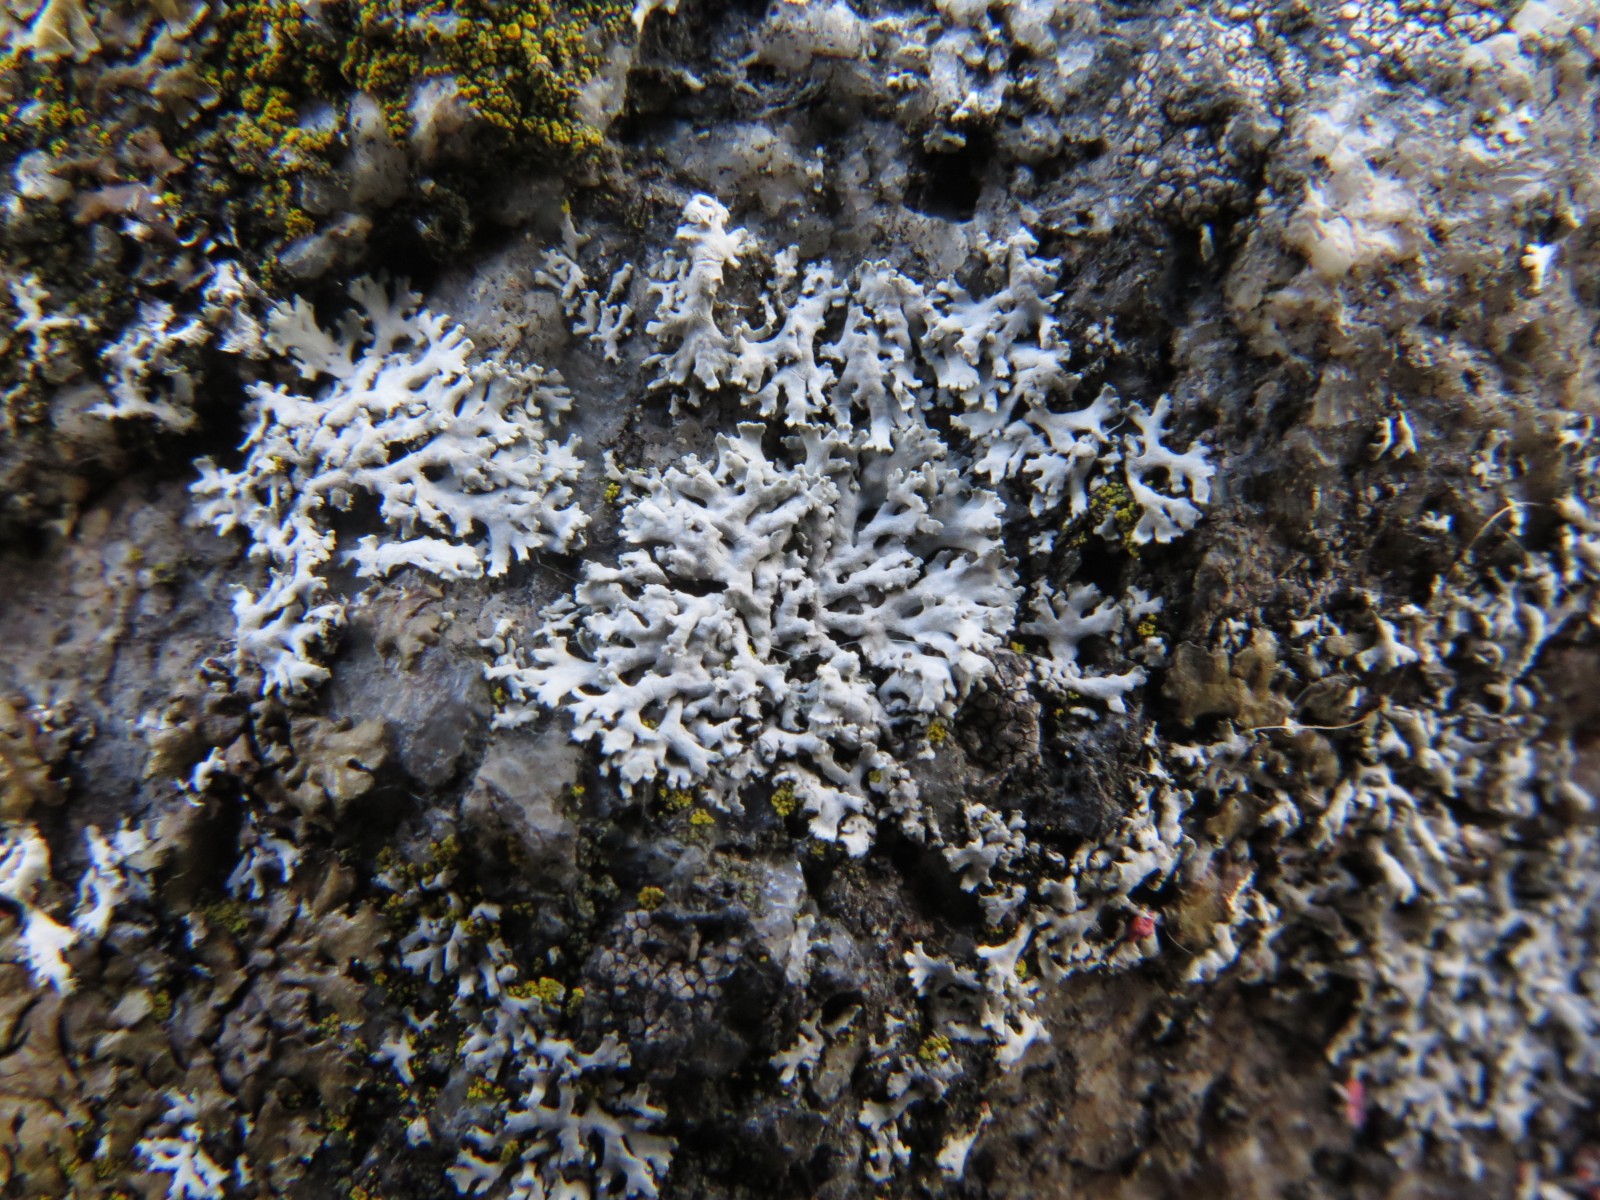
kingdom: Fungi
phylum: Ascomycota
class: Lecanoromycetes
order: Caliciales
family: Physciaceae
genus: Physcia
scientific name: Physcia dubia
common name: fuglestens-rosetlav
